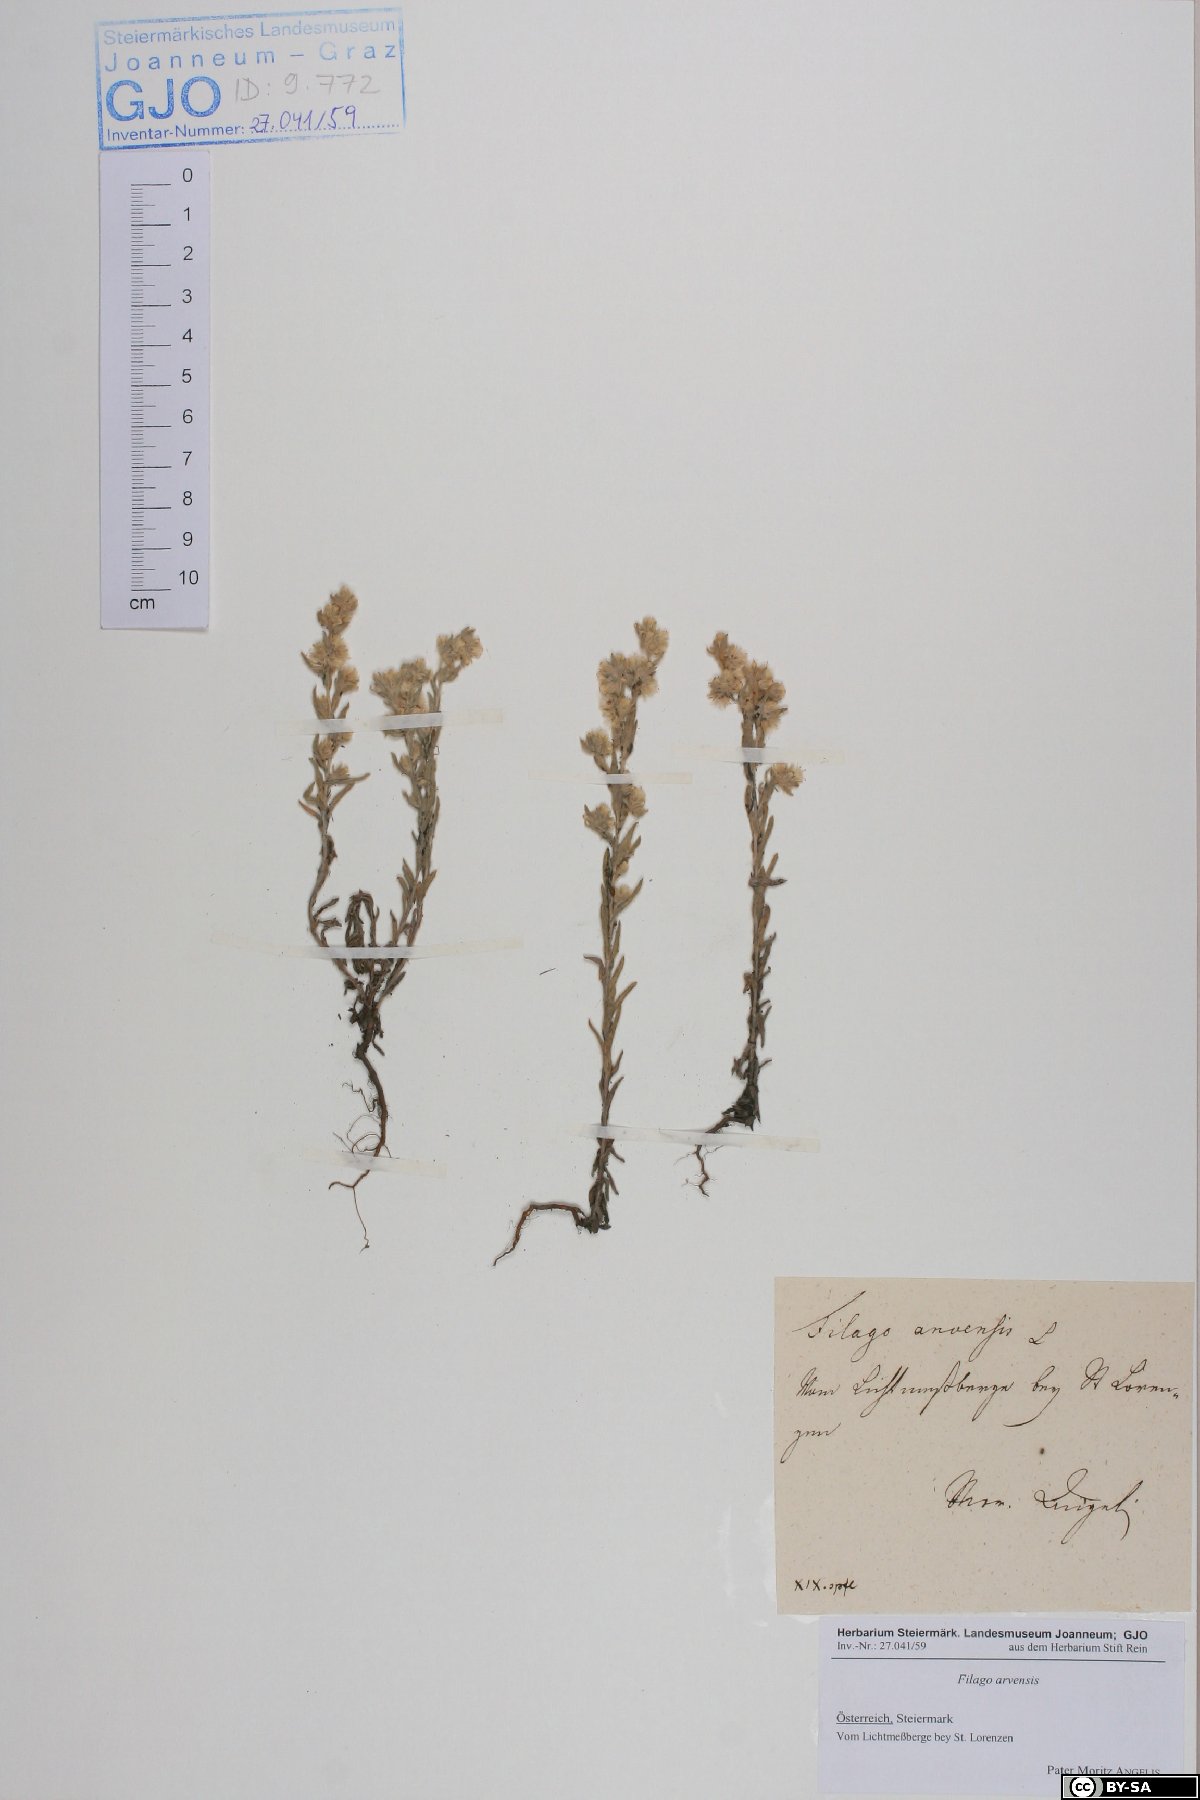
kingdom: Plantae
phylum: Tracheophyta
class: Magnoliopsida
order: Asterales
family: Asteraceae
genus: Filago
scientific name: Filago arvensis
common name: Field cudweed
